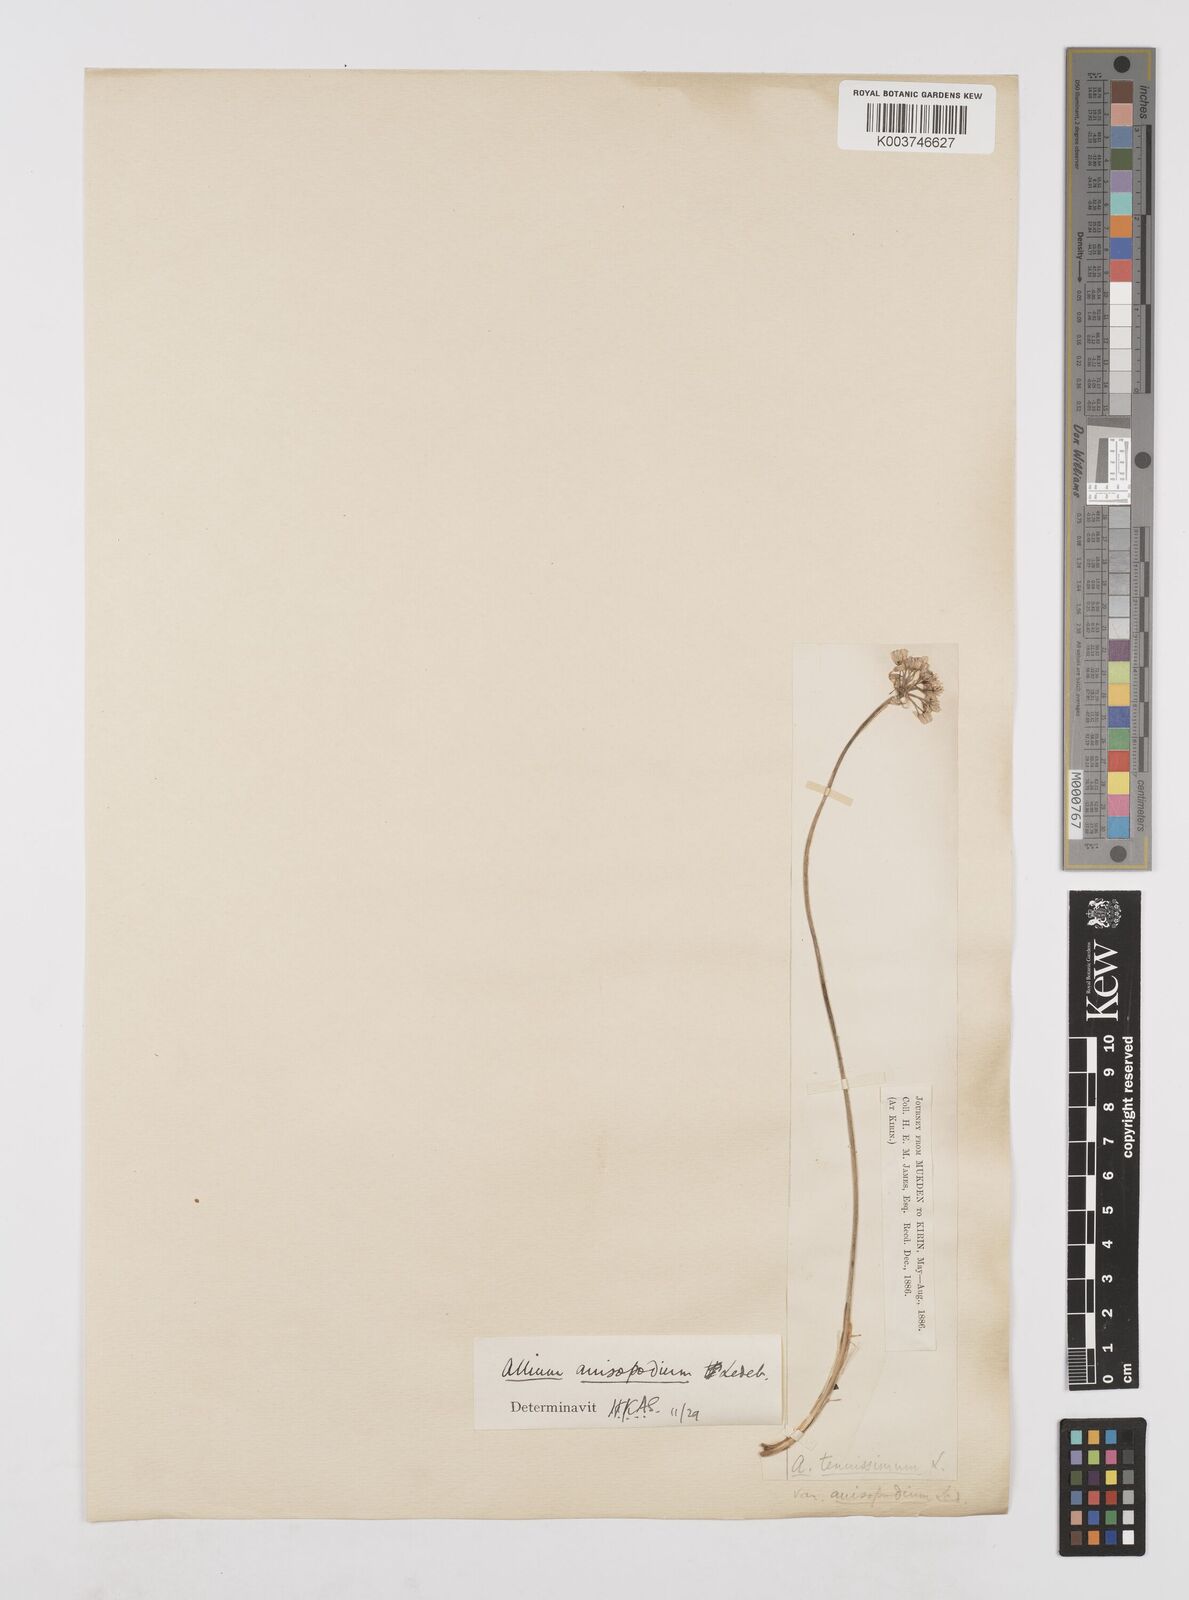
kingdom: Plantae
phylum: Tracheophyta
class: Liliopsida
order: Asparagales
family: Amaryllidaceae
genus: Allium
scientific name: Allium anisopodium
